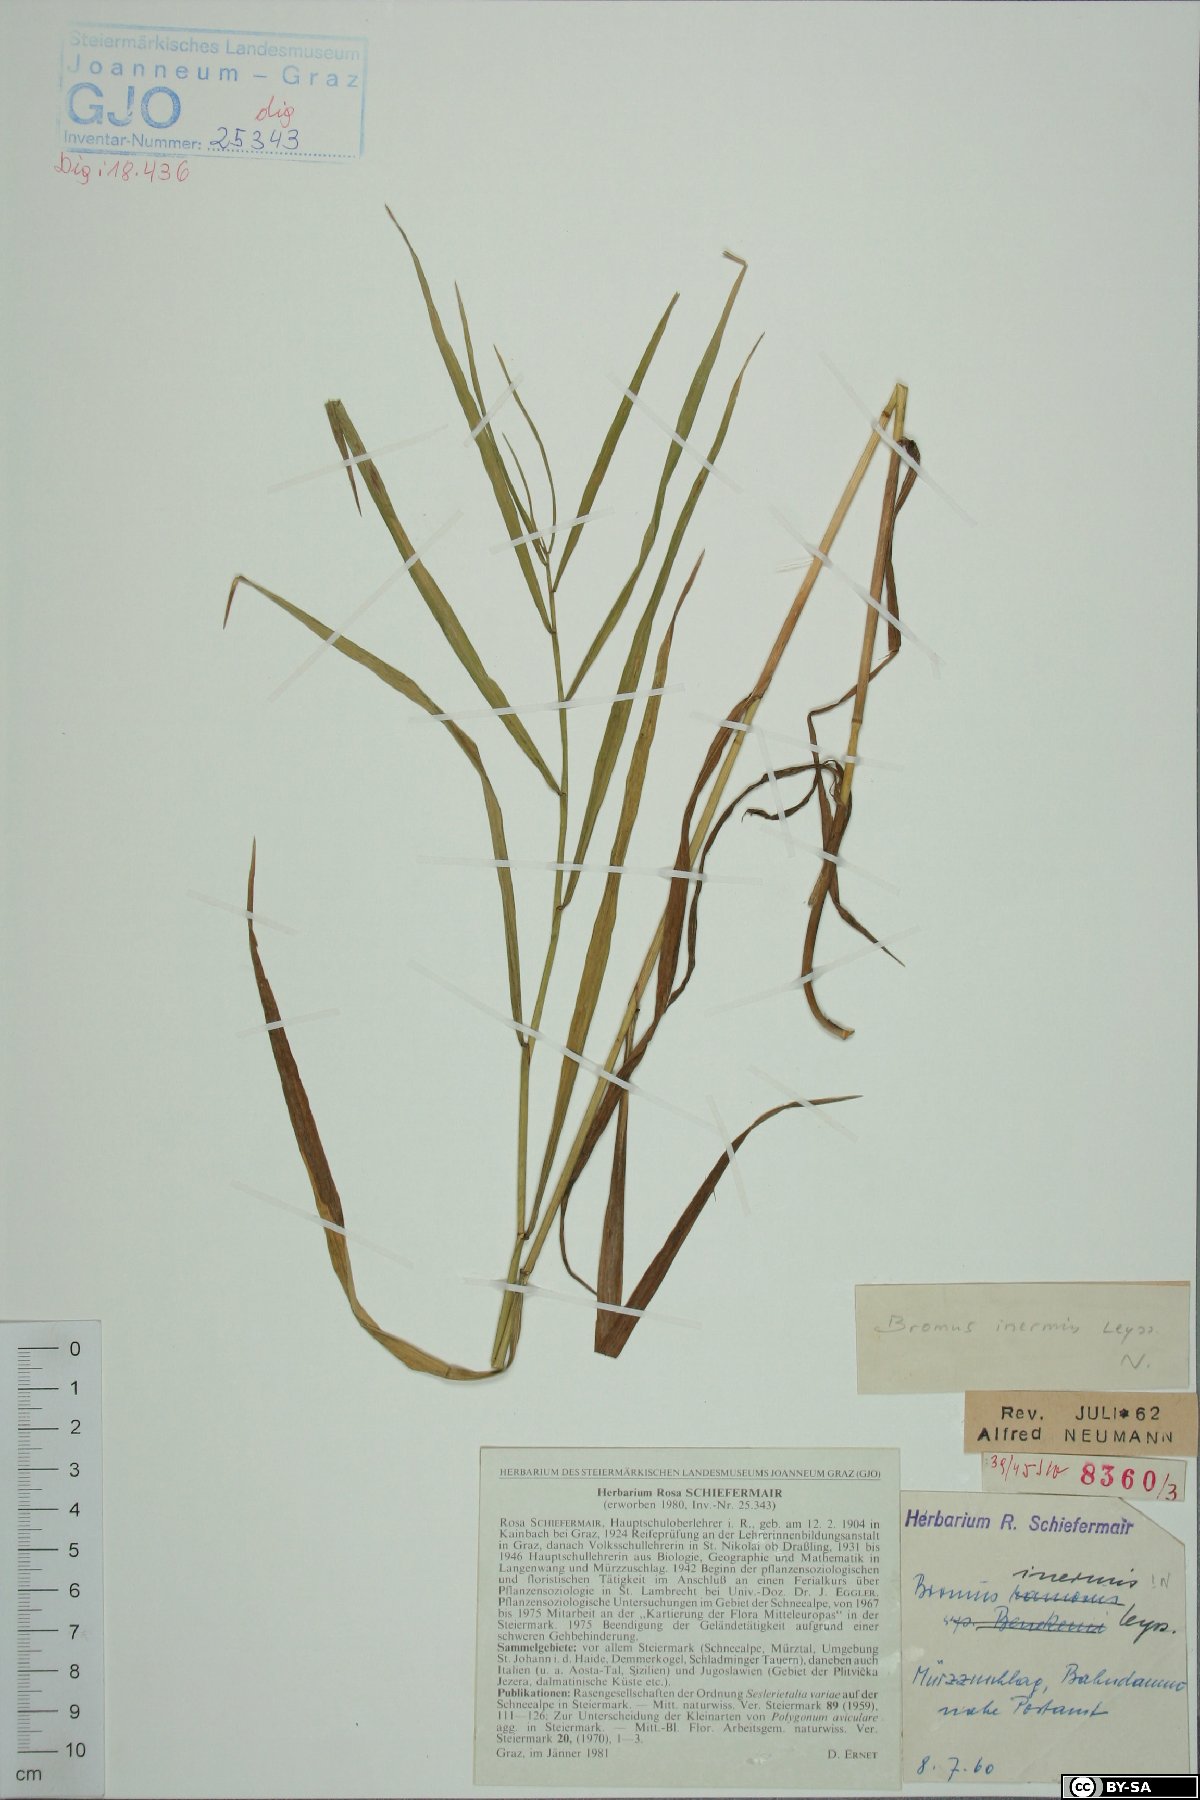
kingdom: Plantae
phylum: Tracheophyta
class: Liliopsida
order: Poales
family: Poaceae
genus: Bromus
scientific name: Bromus inermis
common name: Smooth brome
